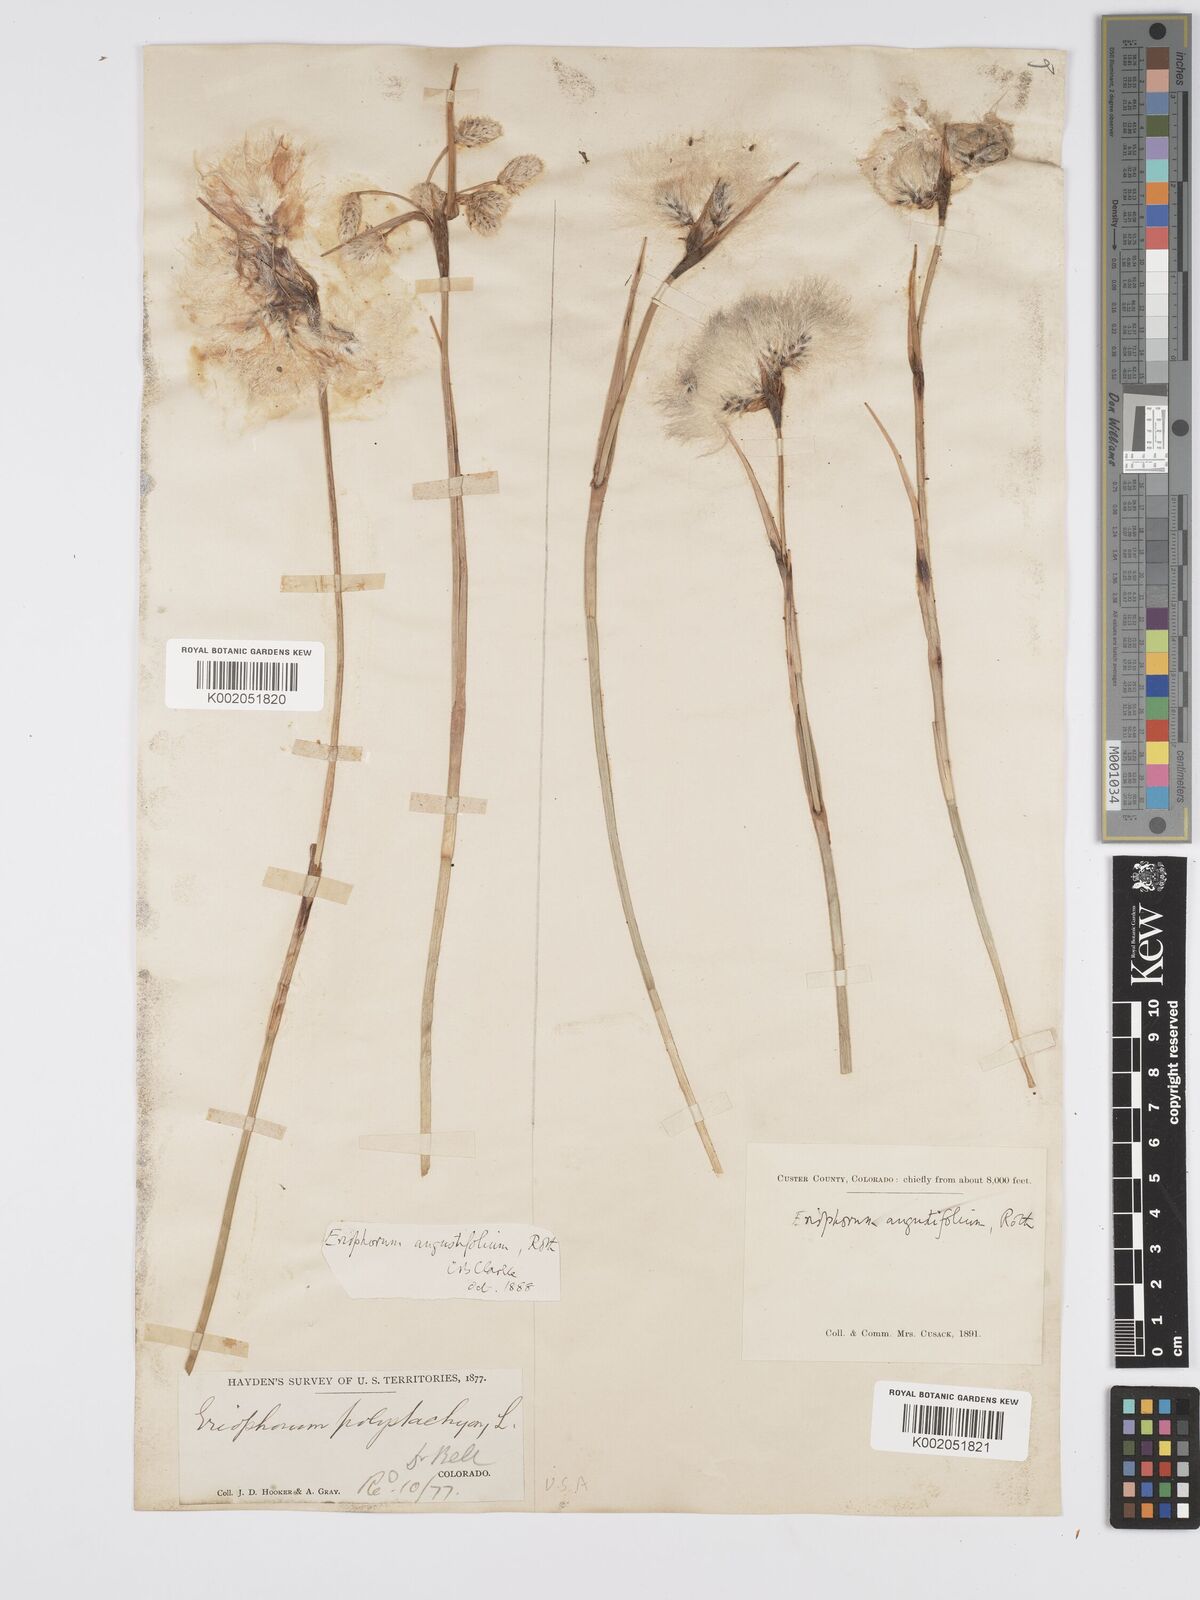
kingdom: Plantae
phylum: Tracheophyta
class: Liliopsida
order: Poales
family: Cyperaceae
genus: Eriophorum
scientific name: Eriophorum angustifolium
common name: Common cottongrass
